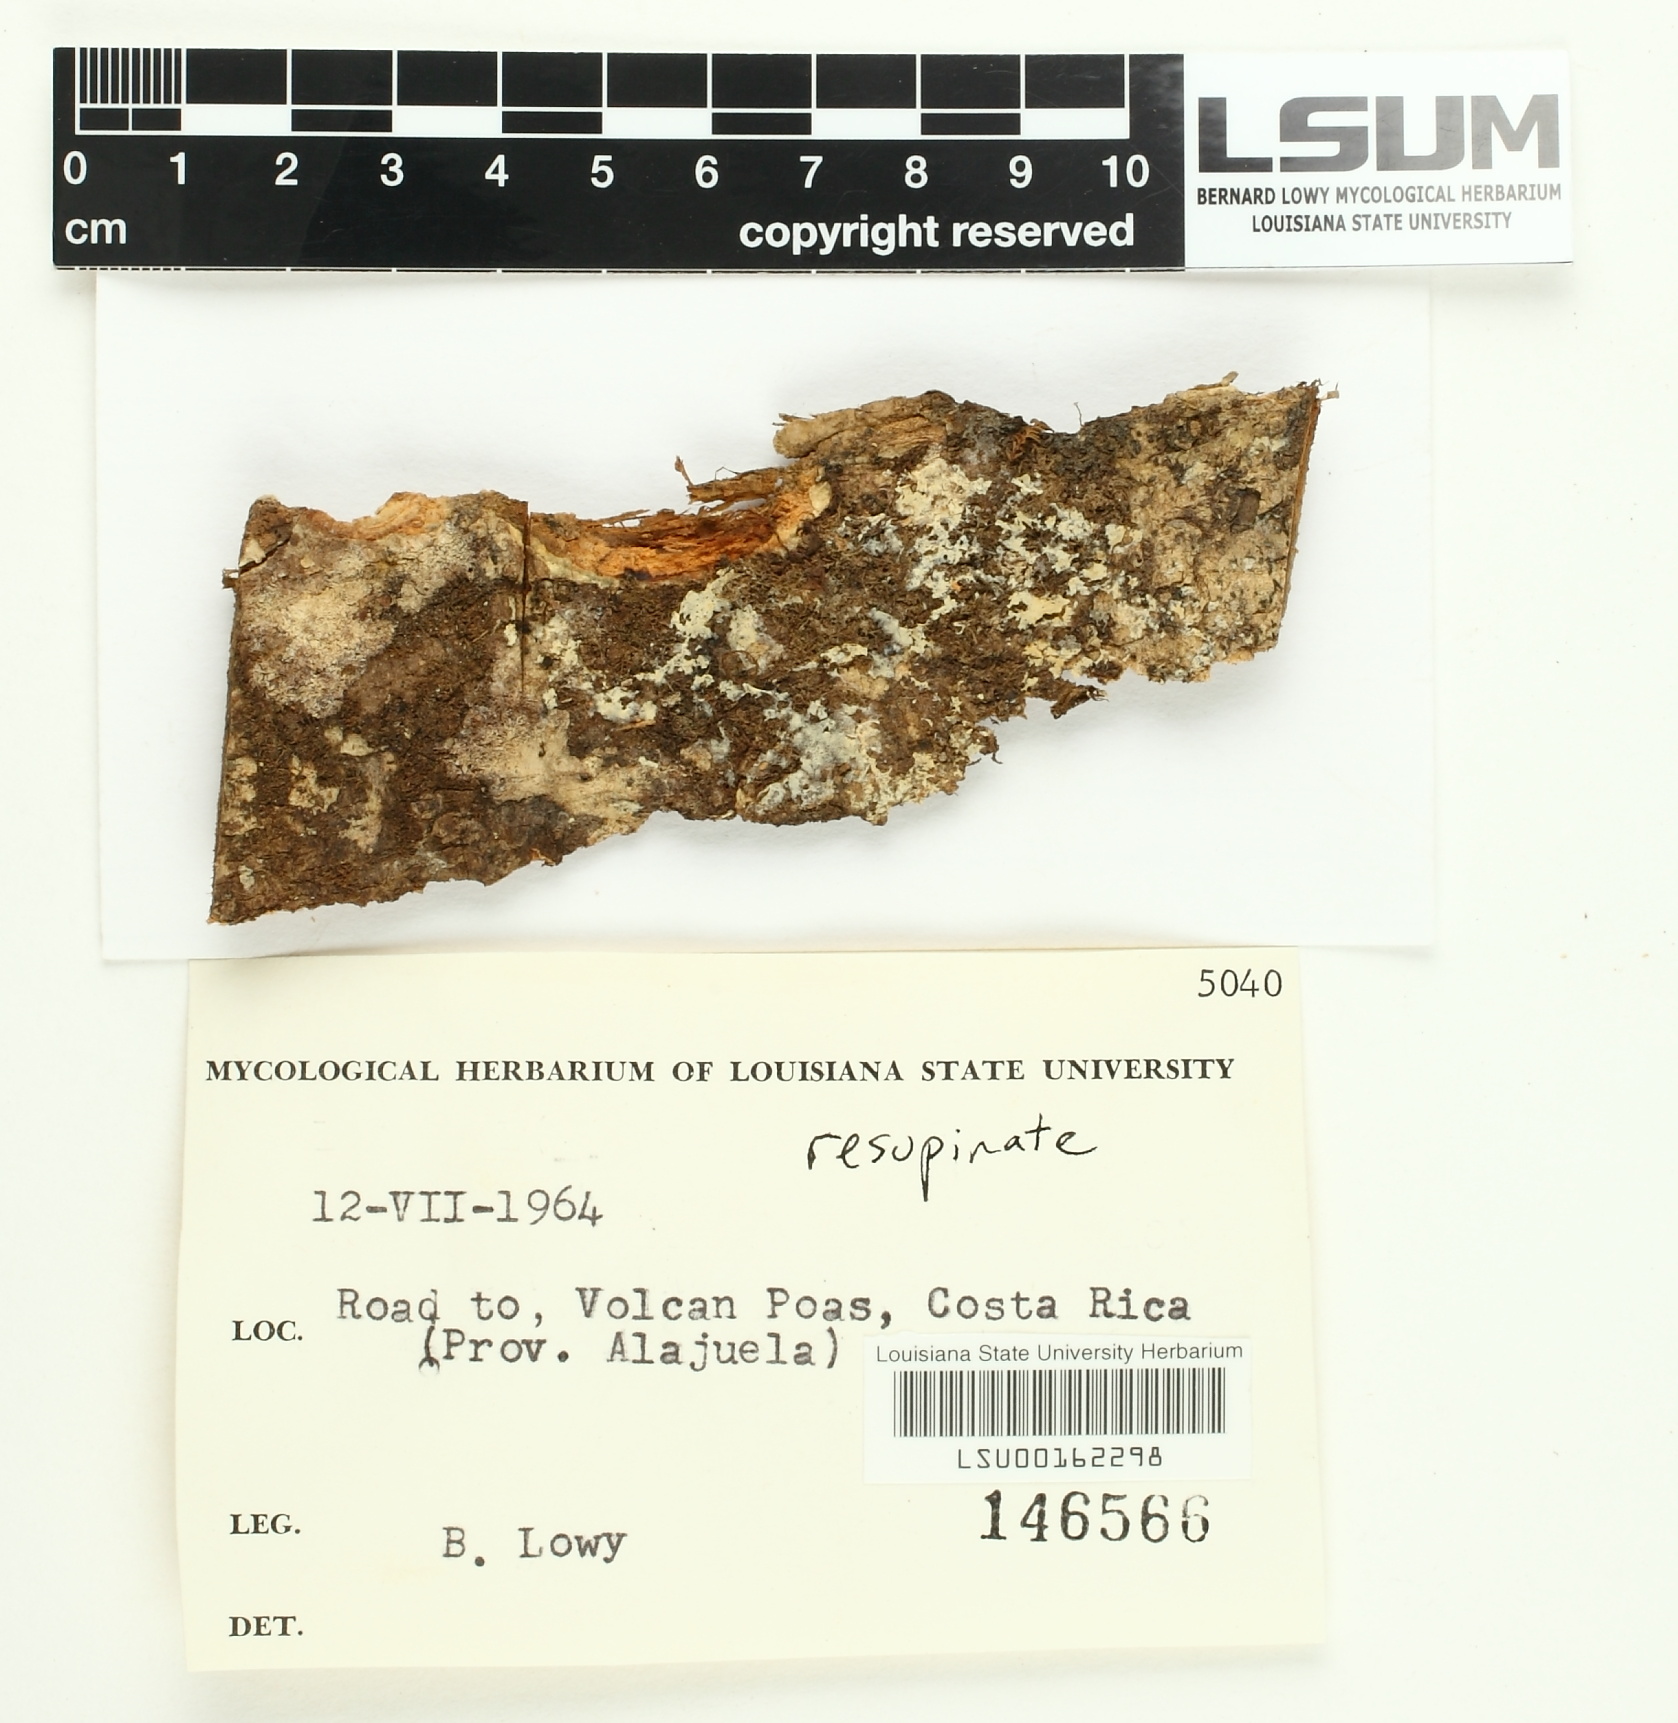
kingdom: Fungi
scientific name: Fungi
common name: Fungi
